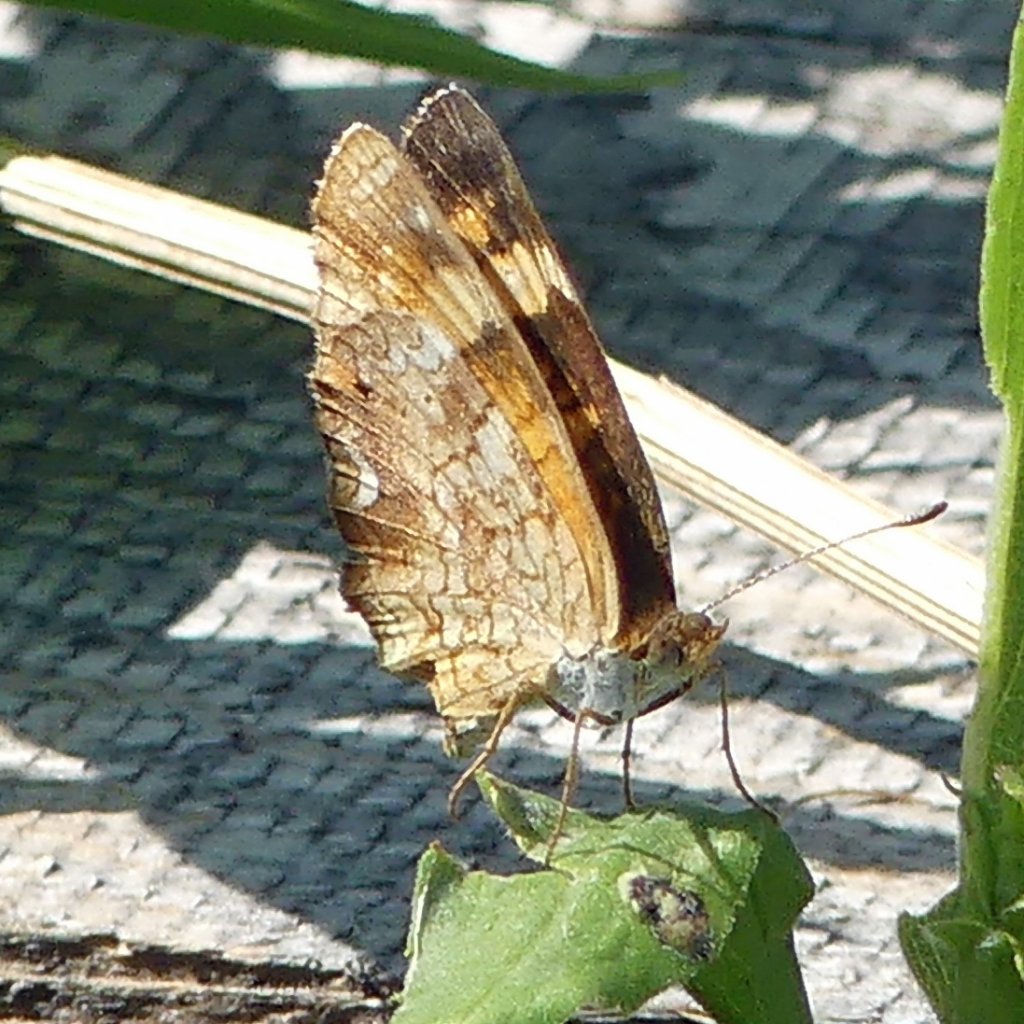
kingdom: Animalia
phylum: Arthropoda
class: Insecta
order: Lepidoptera
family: Nymphalidae
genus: Phyciodes
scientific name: Phyciodes tharos
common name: Northern Crescent
